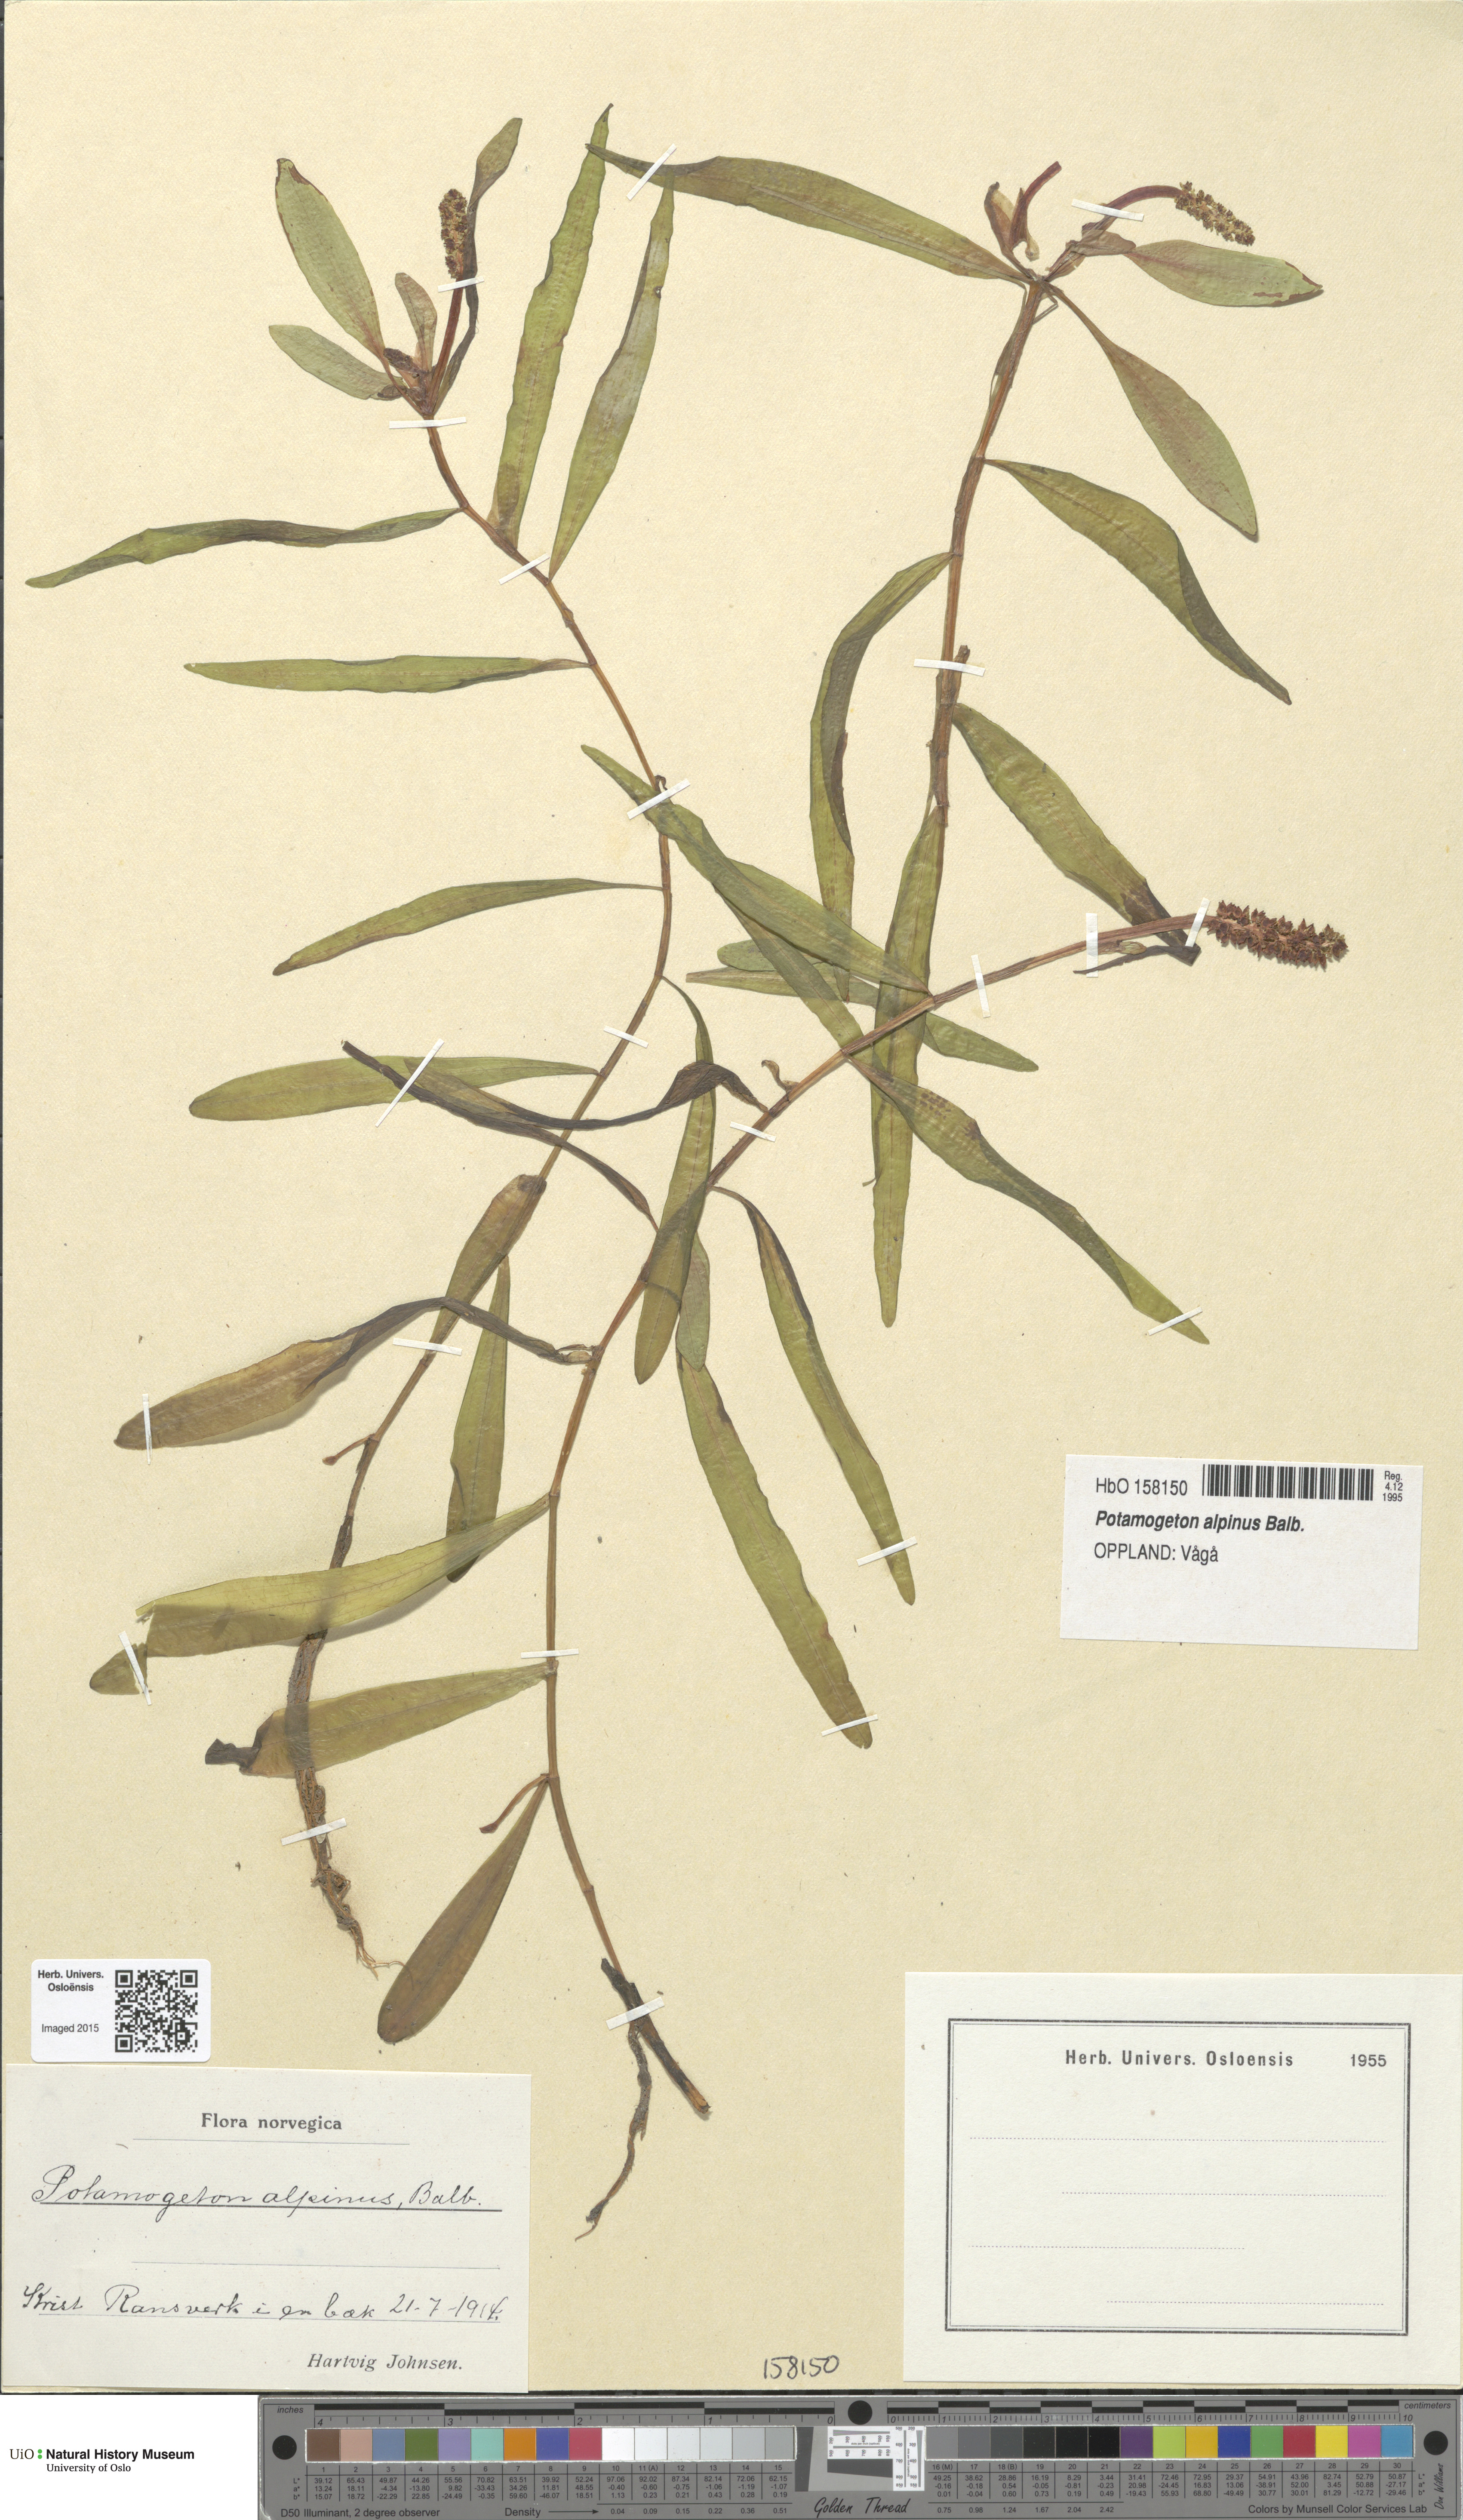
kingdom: Plantae
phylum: Tracheophyta
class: Liliopsida
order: Alismatales
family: Potamogetonaceae
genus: Potamogeton
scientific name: Potamogeton alpinus
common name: Red pondweed
